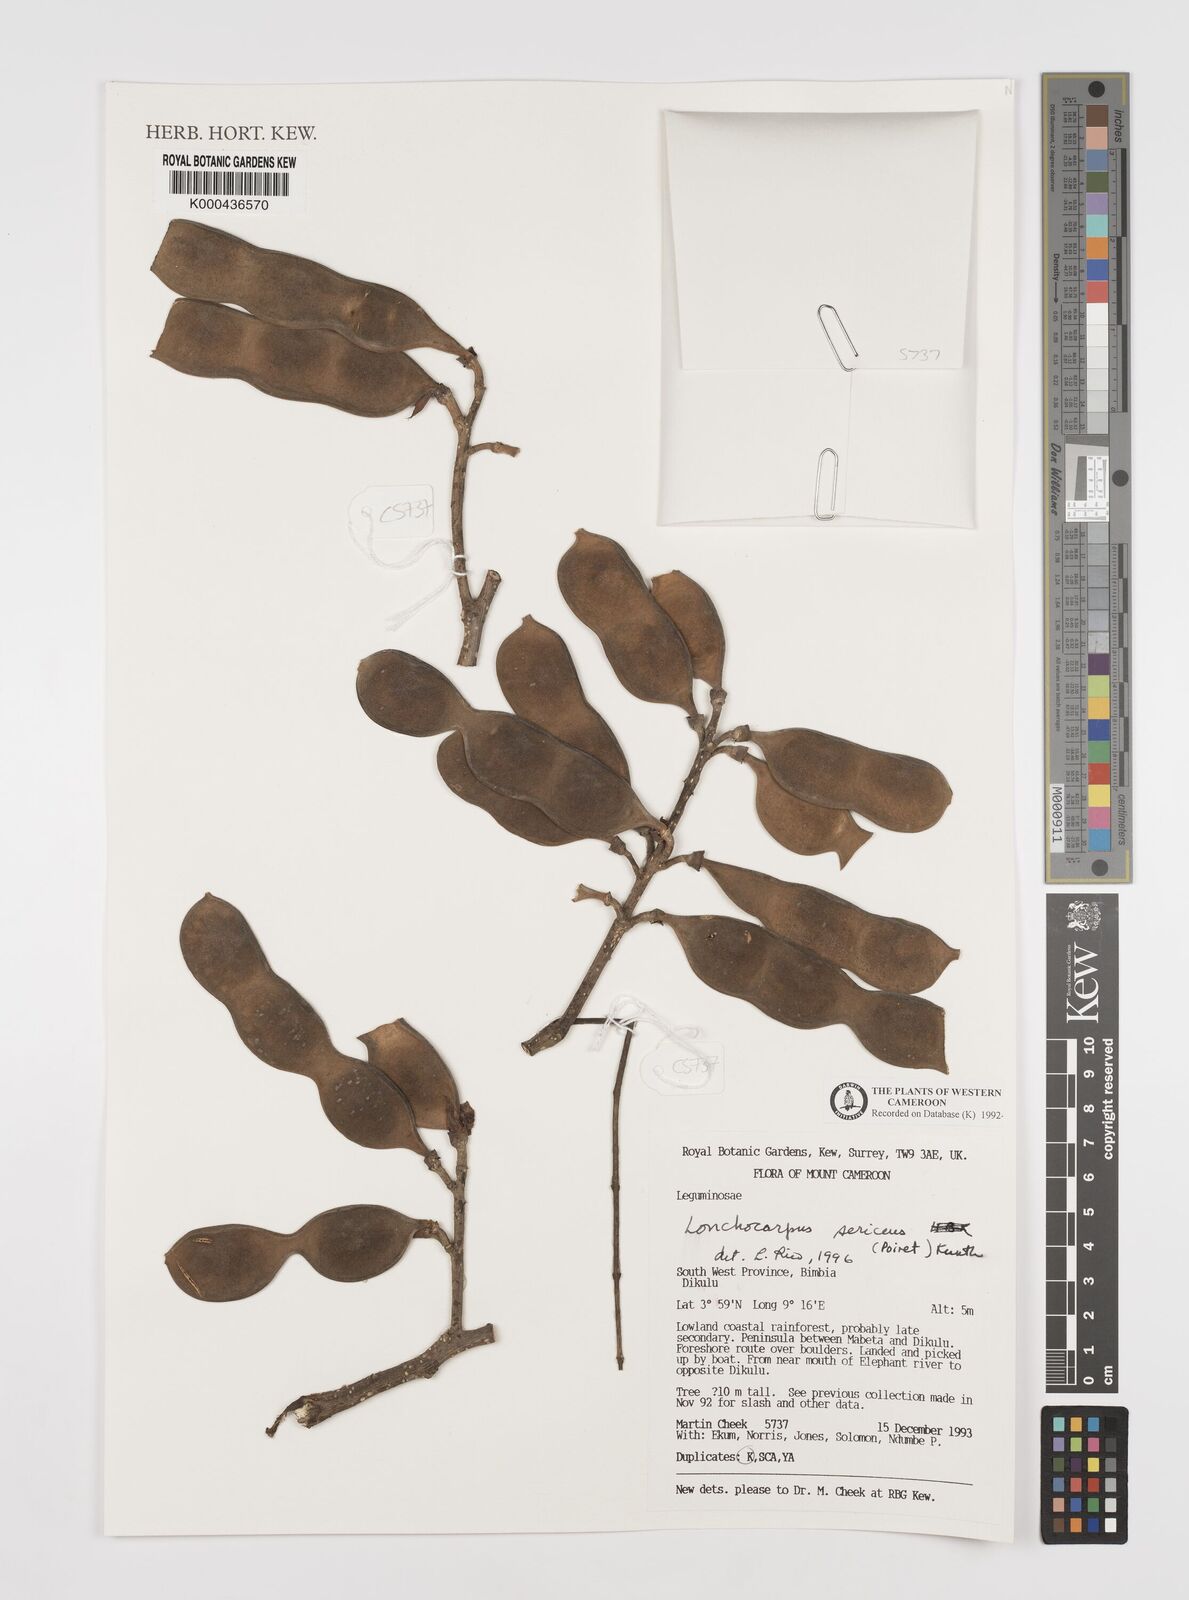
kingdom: Plantae
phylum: Tracheophyta
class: Magnoliopsida
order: Fabales
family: Fabaceae
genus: Lonchocarpus
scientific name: Lonchocarpus
